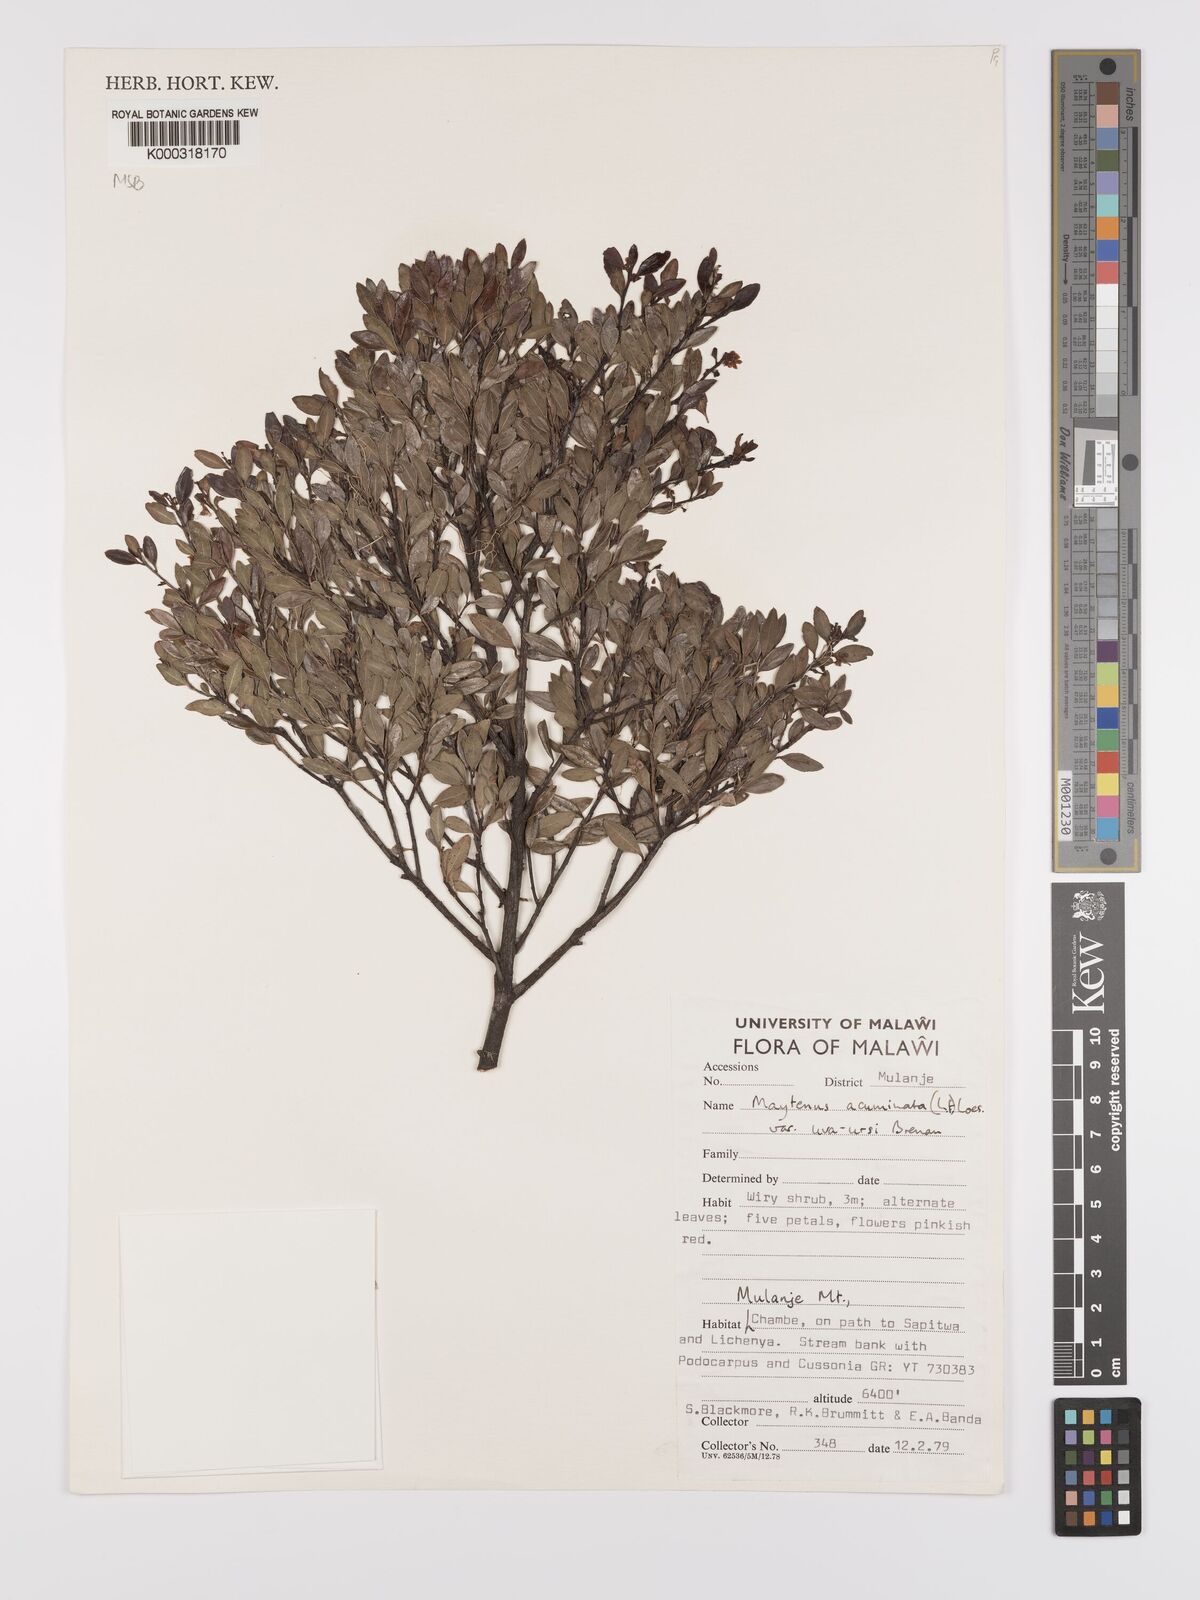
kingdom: Plantae
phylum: Tracheophyta
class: Magnoliopsida
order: Celastrales
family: Celastraceae
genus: Maytenus
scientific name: Maytenus
